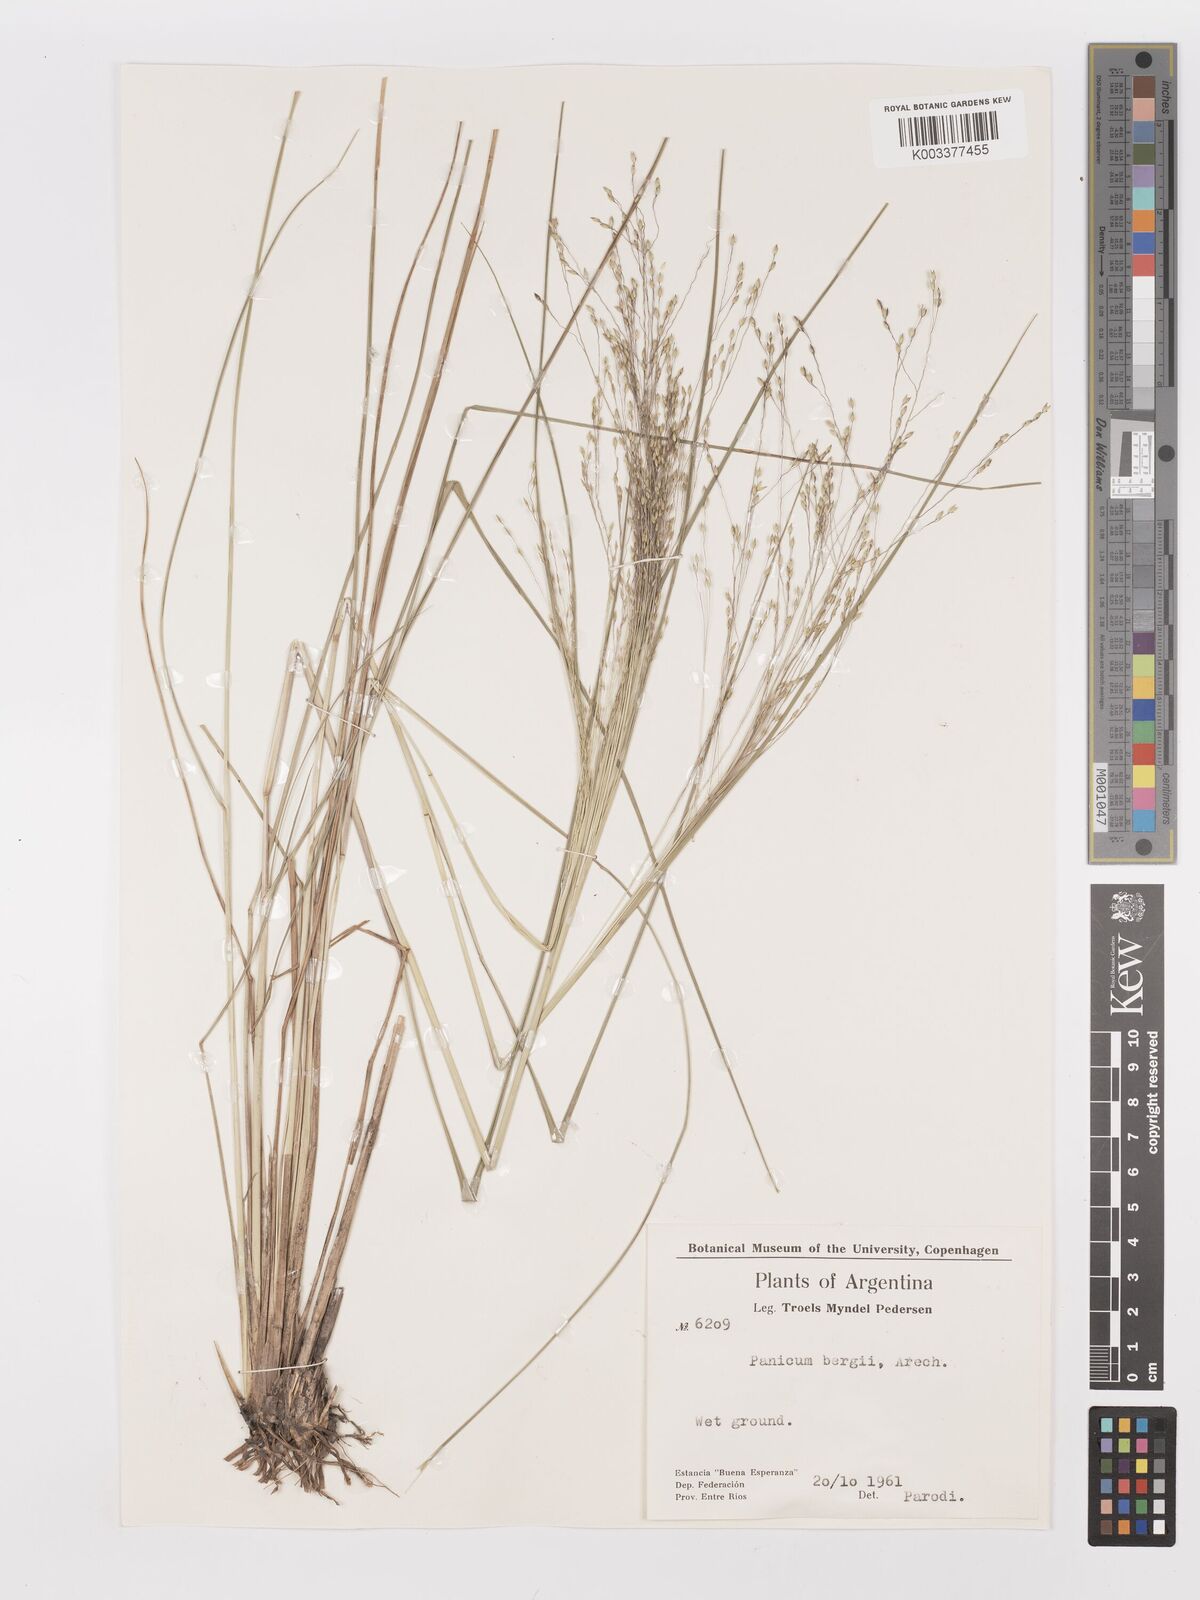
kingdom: Plantae
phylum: Tracheophyta
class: Liliopsida
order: Poales
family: Poaceae
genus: Panicum
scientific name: Panicum bergii
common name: Berg's panicgrass
